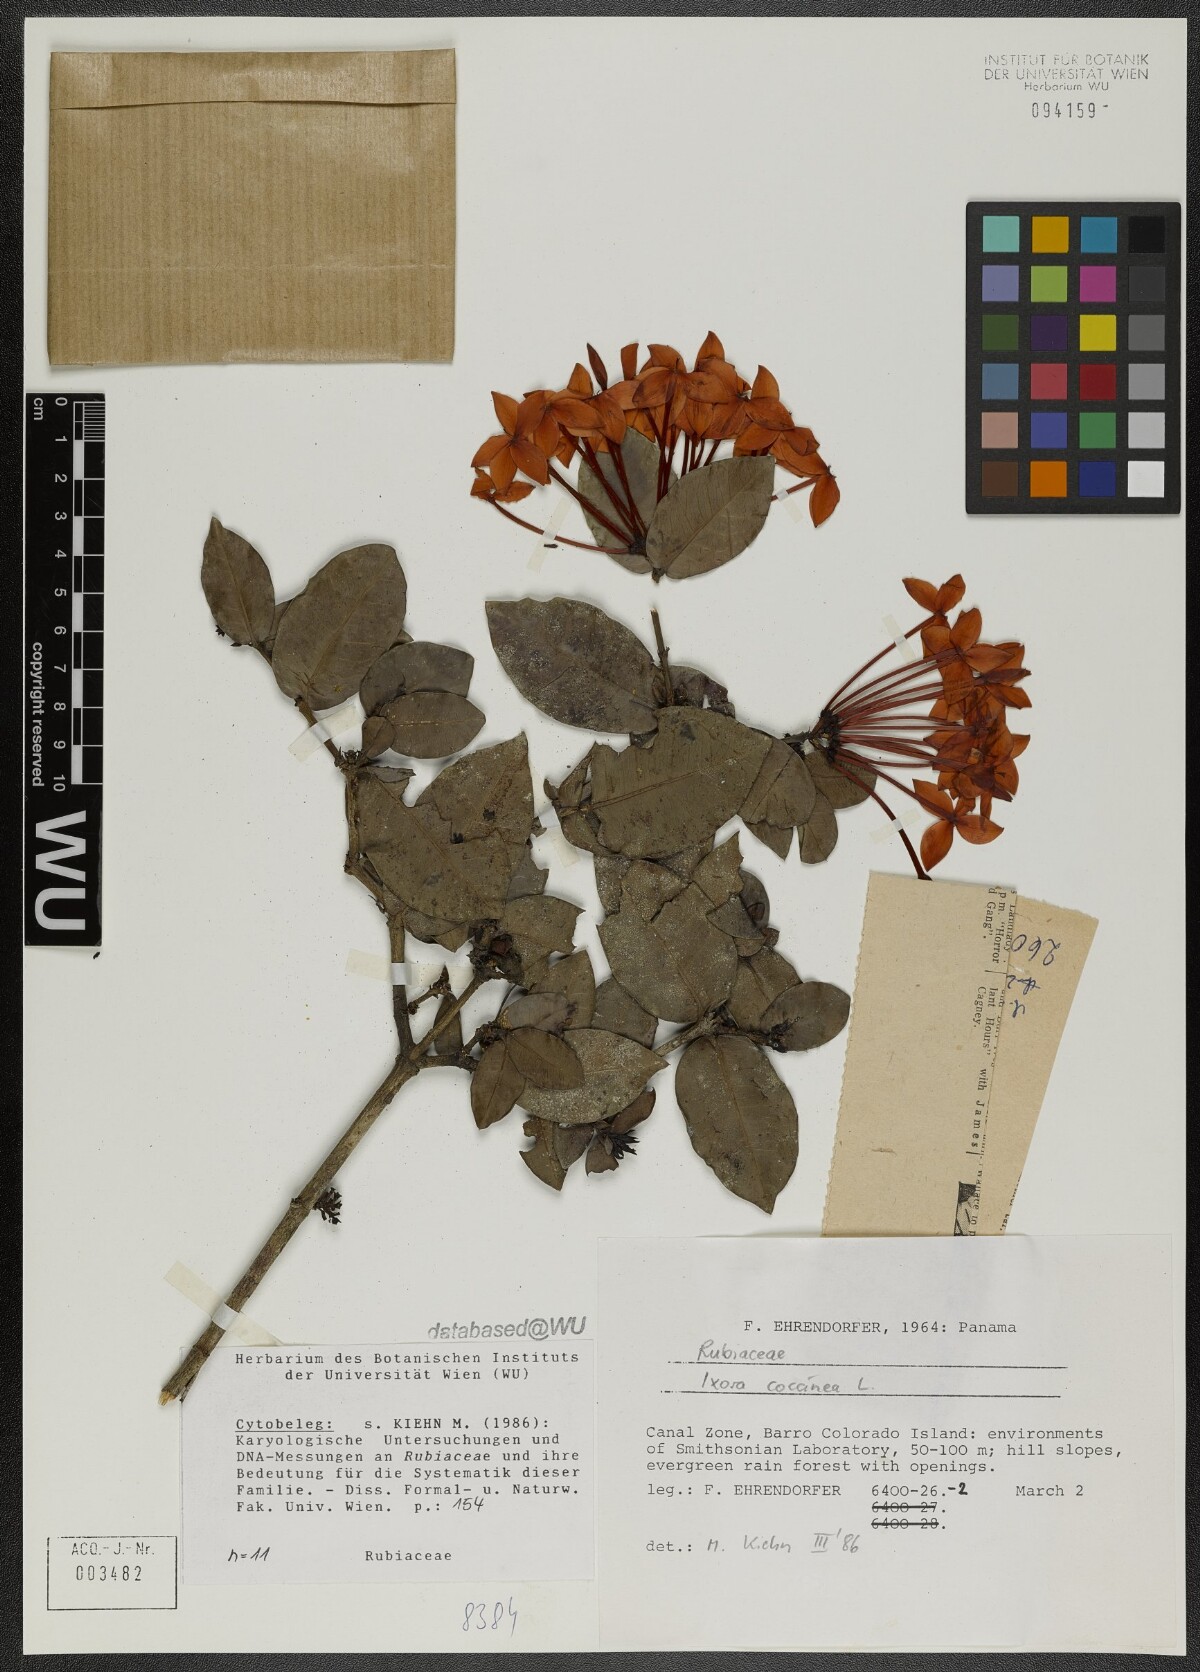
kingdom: Plantae
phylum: Tracheophyta
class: Magnoliopsida
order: Gentianales
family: Rubiaceae
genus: Ixora
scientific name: Ixora coccinea
